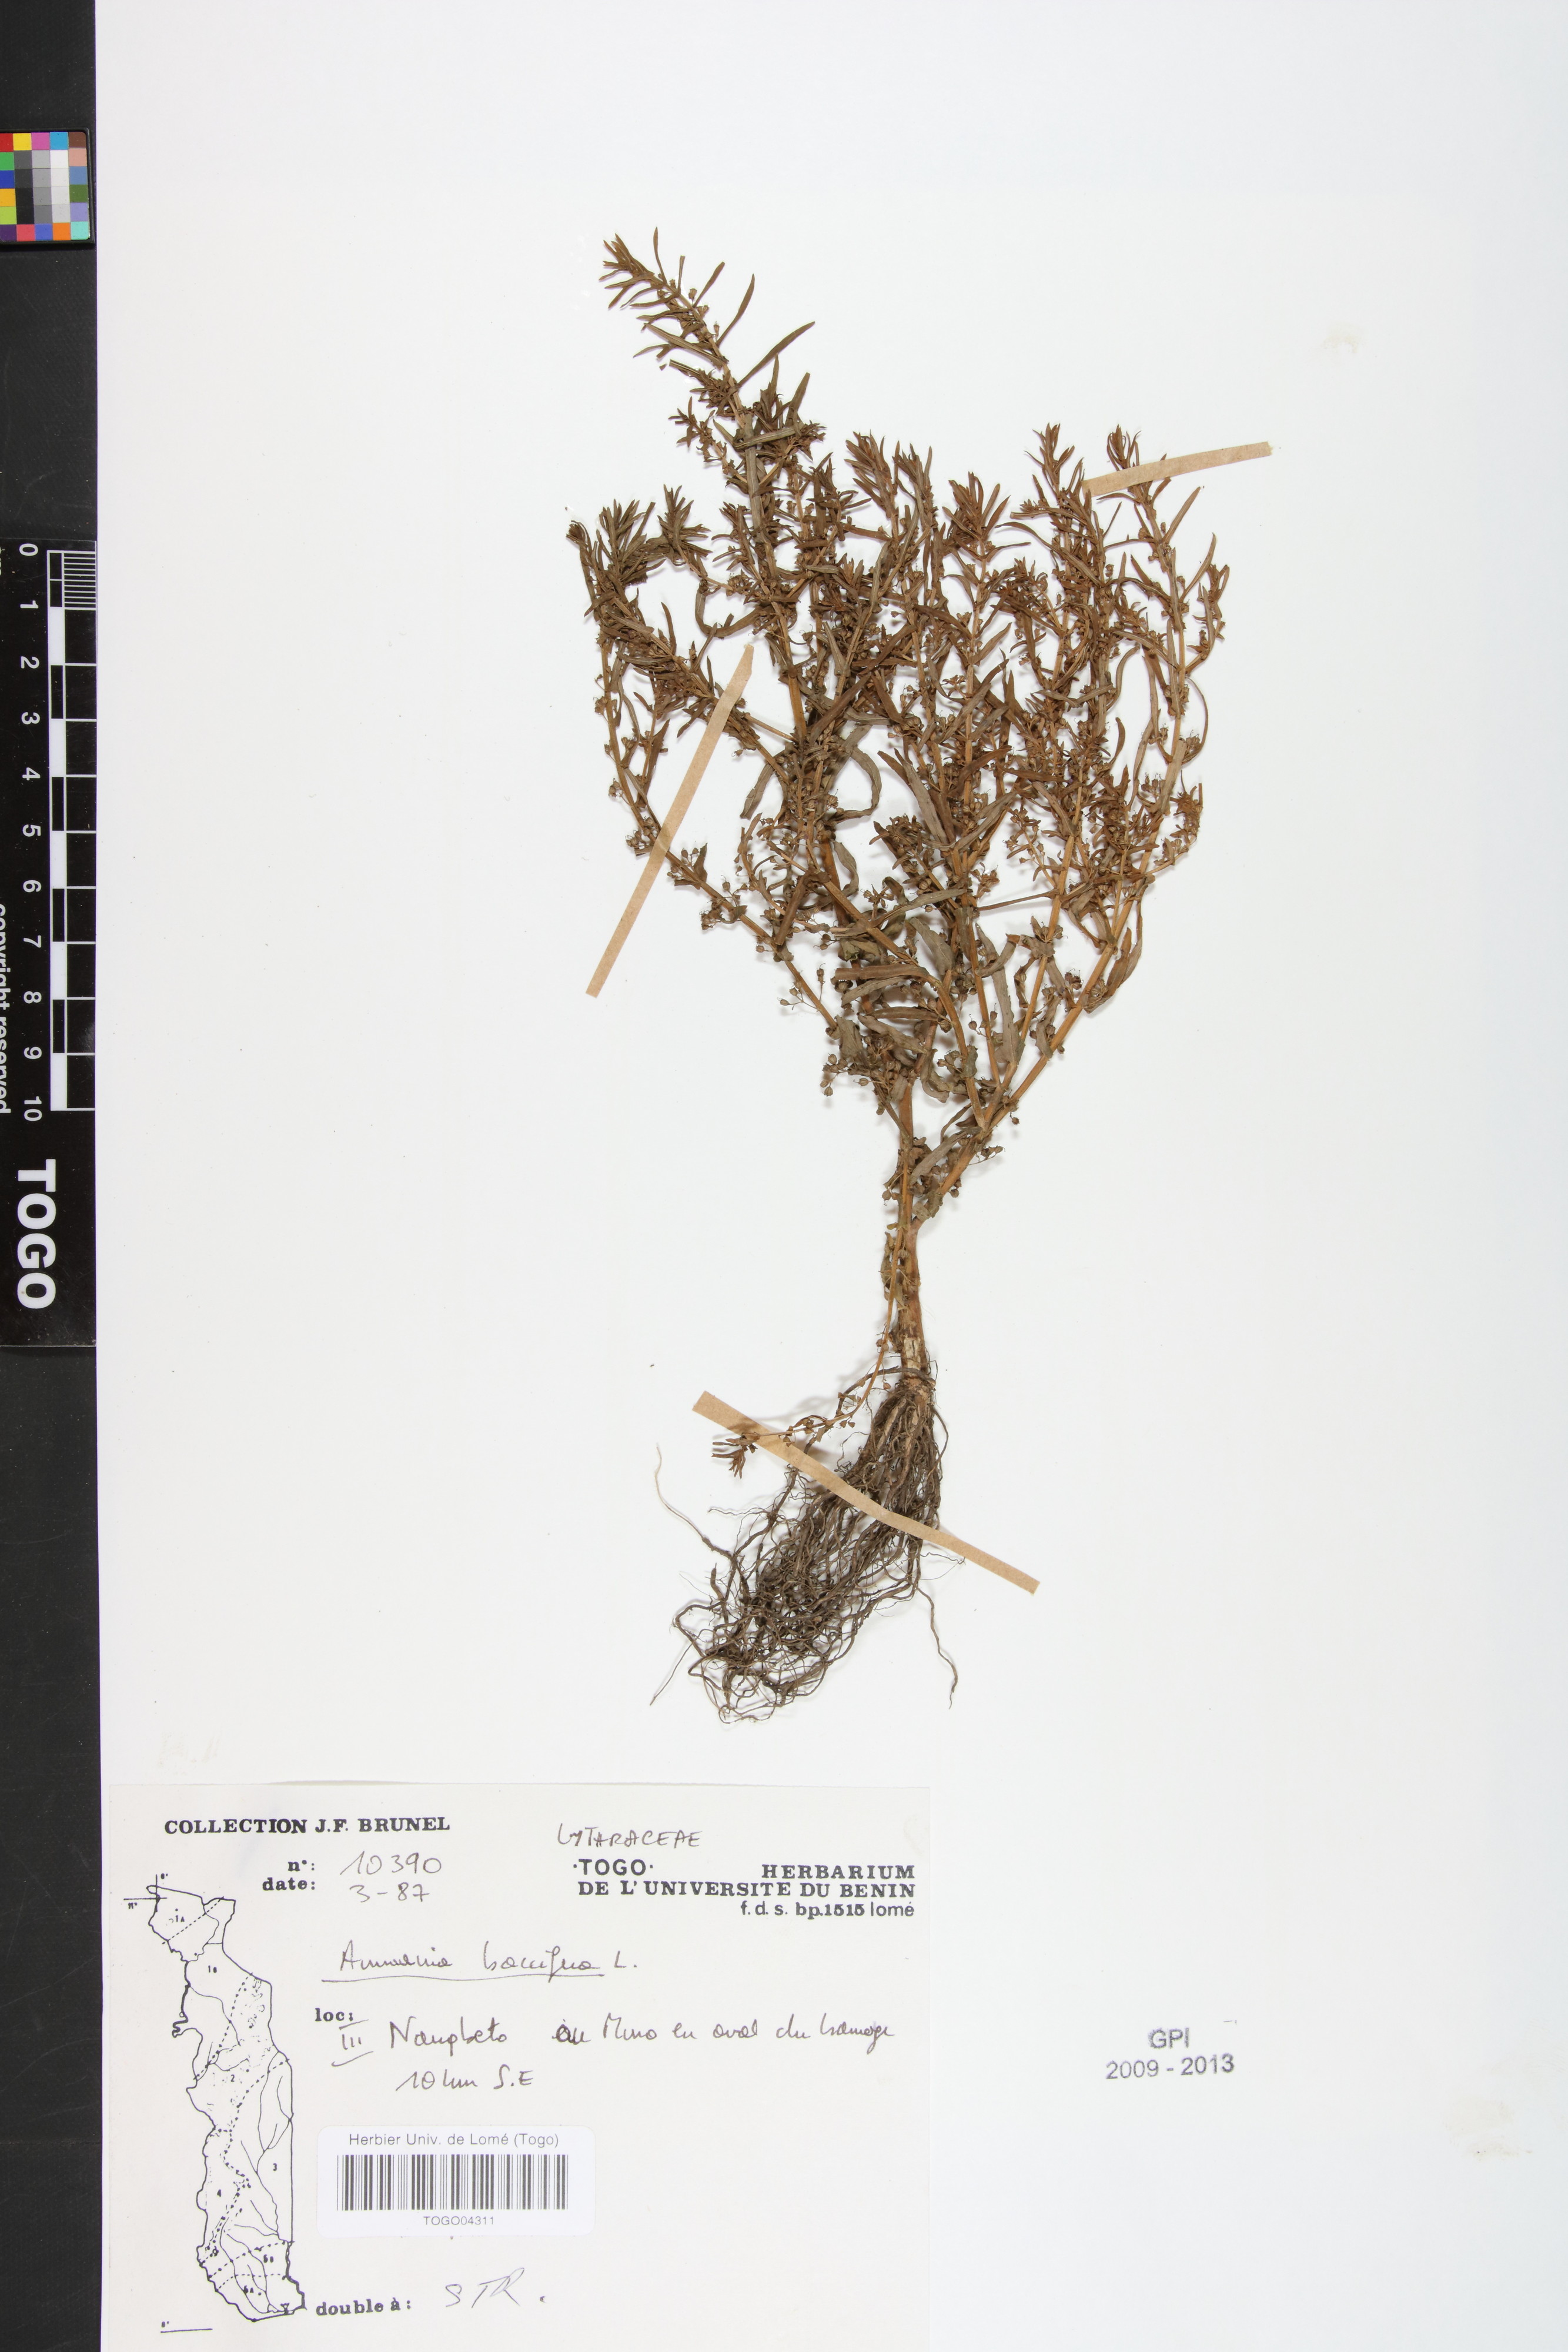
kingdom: Plantae
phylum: Tracheophyta
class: Magnoliopsida
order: Myrtales
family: Lythraceae
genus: Ammannia
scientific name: Ammannia baccifera
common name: Blistering ammania
